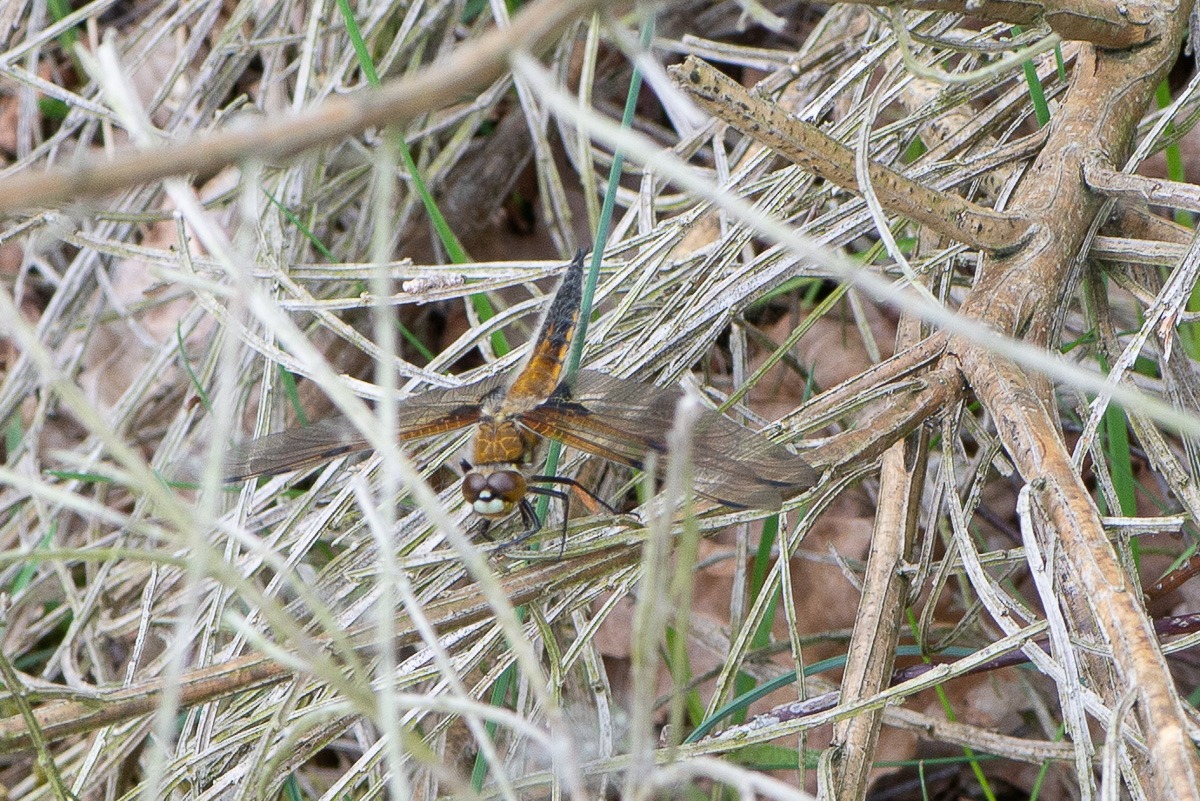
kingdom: Animalia
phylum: Arthropoda
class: Insecta
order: Odonata
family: Libellulidae
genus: Libellula
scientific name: Libellula quadrimaculata
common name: Fireplettet libel
